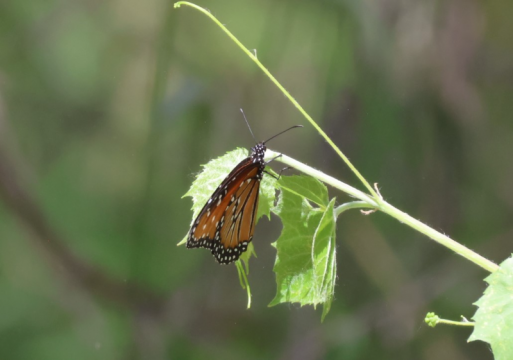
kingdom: Animalia
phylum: Arthropoda
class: Insecta
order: Lepidoptera
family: Nymphalidae
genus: Danaus
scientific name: Danaus gilippus
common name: Queen
